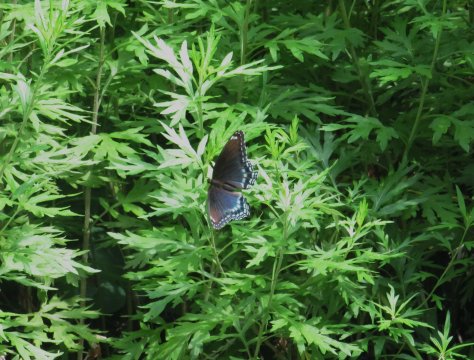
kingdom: Animalia
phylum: Arthropoda
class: Insecta
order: Lepidoptera
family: Nymphalidae
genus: Limenitis
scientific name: Limenitis arthemis
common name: Red-spotted Admiral
